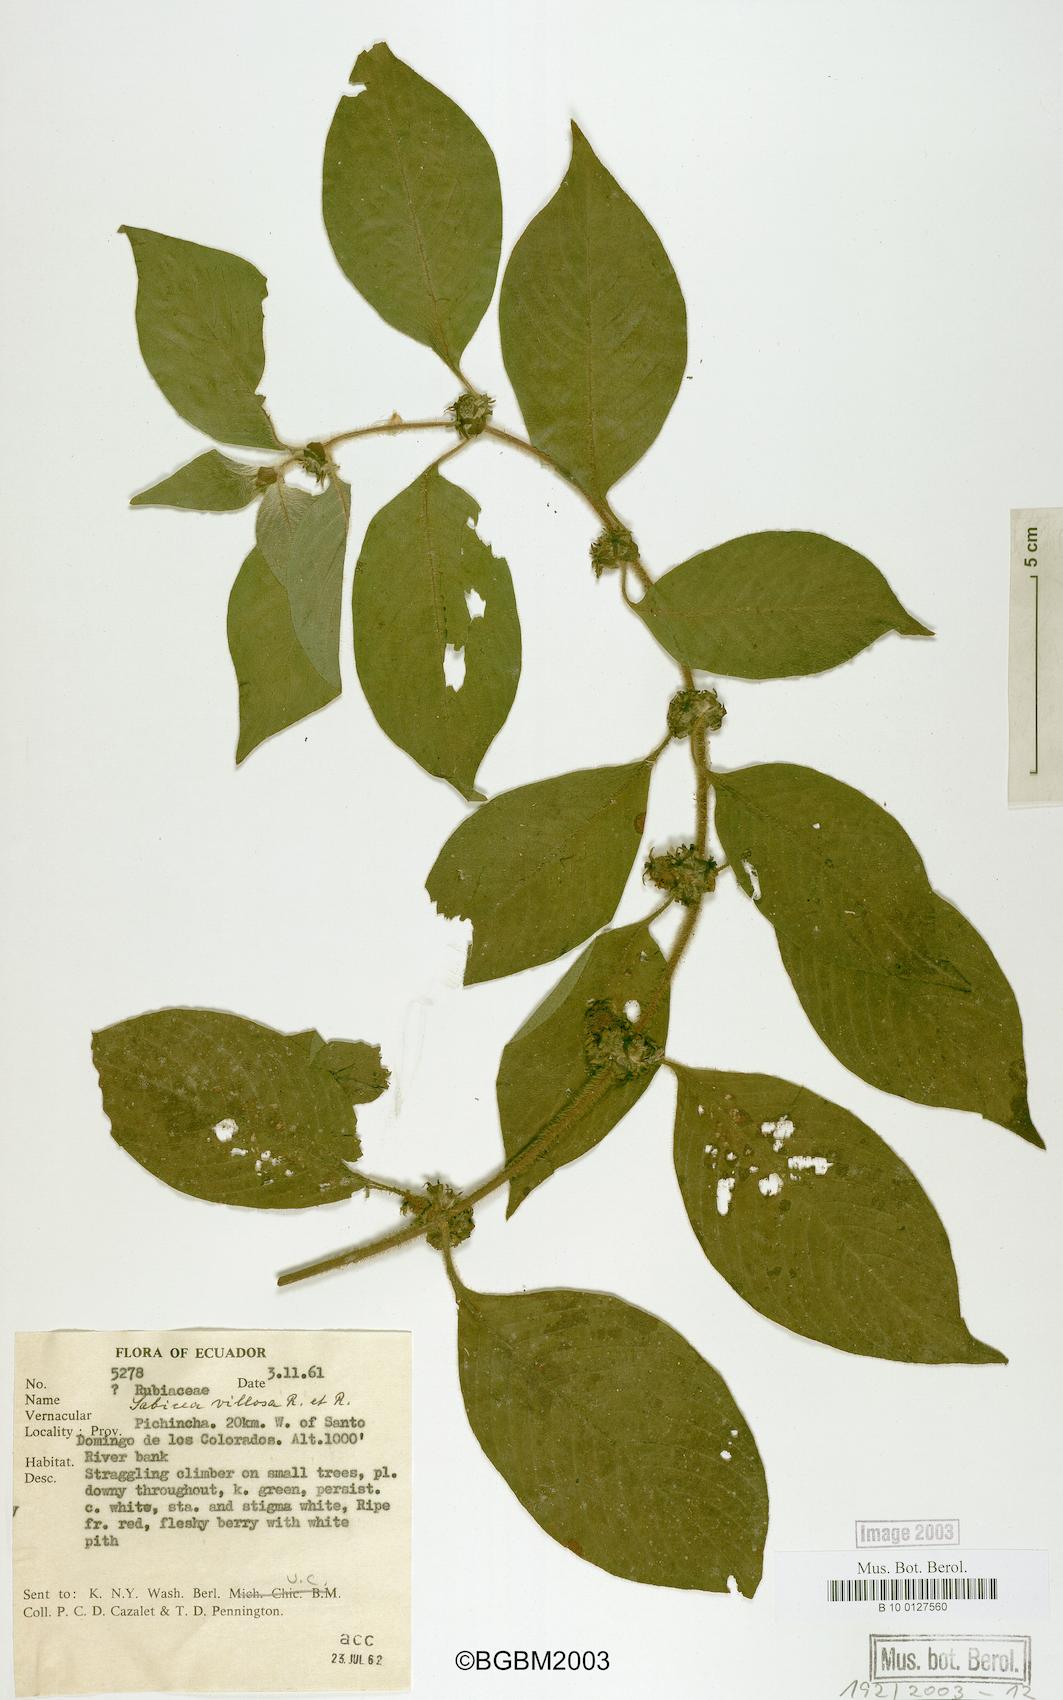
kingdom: Plantae
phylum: Tracheophyta
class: Magnoliopsida
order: Gentianales
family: Rubiaceae
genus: Sabicea
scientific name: Sabicea villosa
